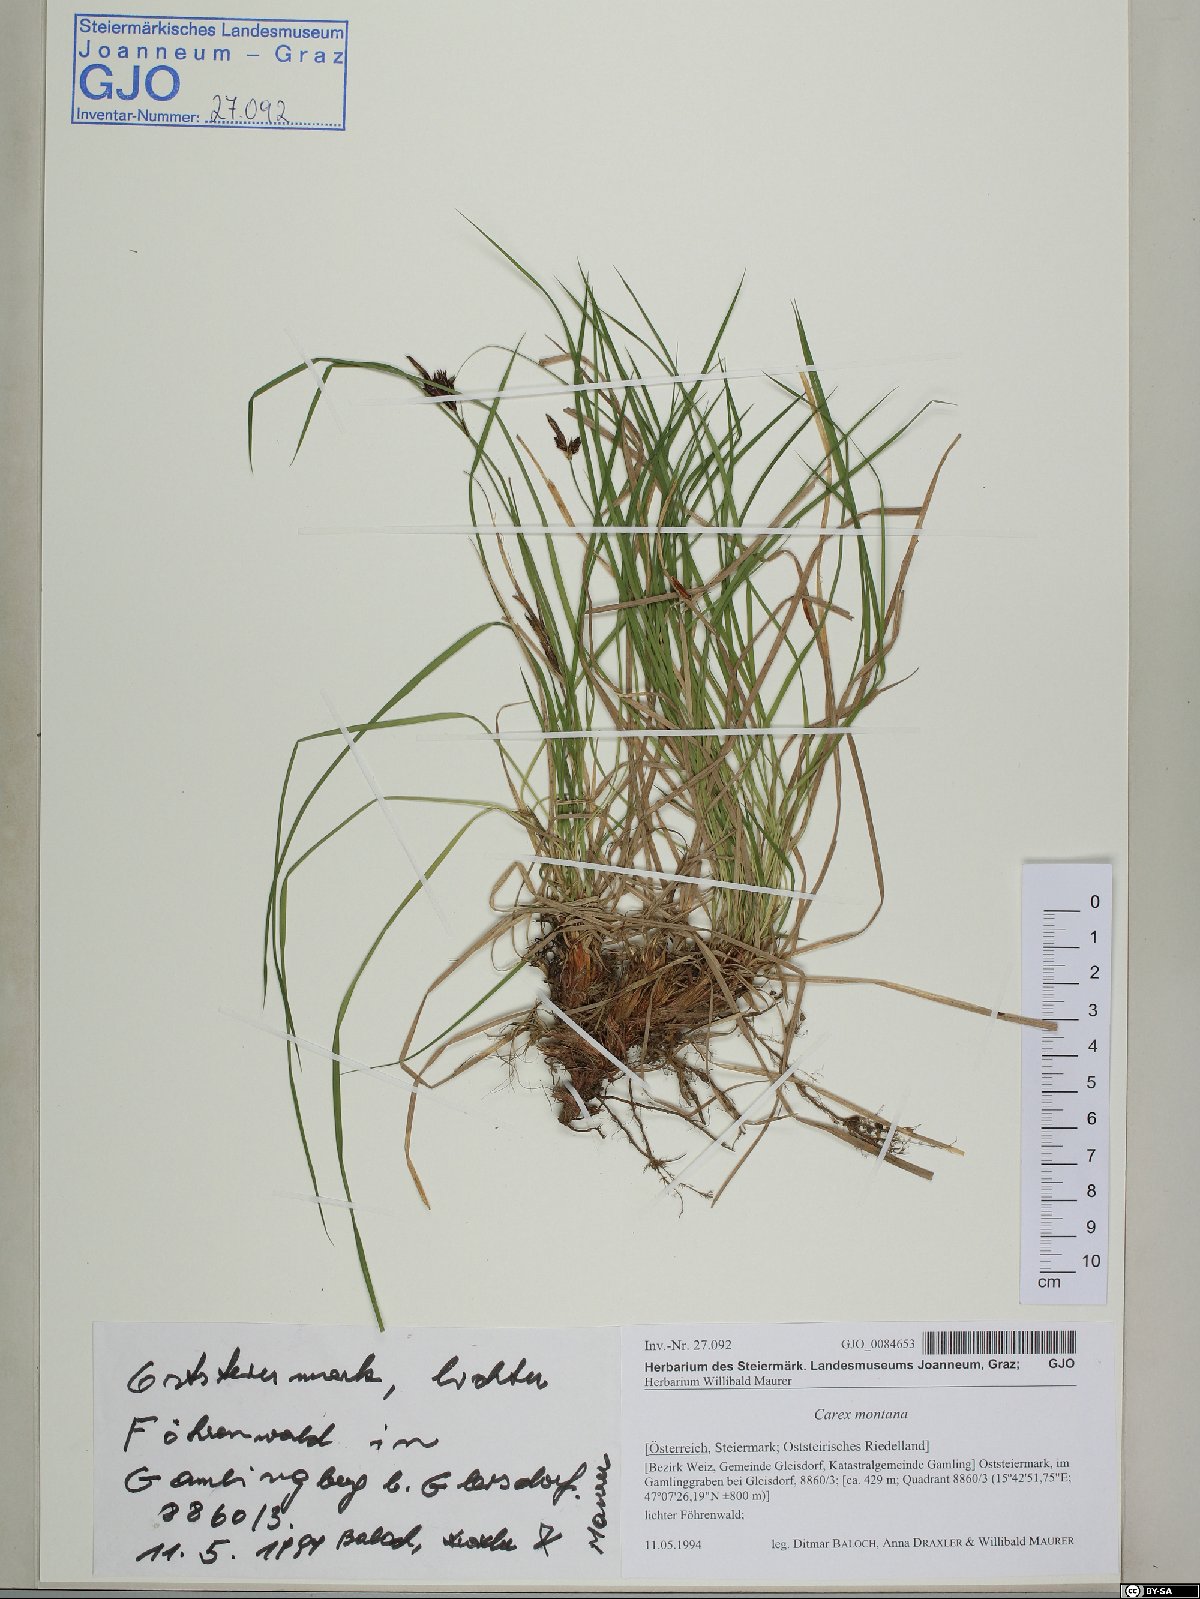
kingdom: Plantae
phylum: Tracheophyta
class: Liliopsida
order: Poales
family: Cyperaceae
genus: Carex
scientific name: Carex montana
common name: Soft-leaved sedge
